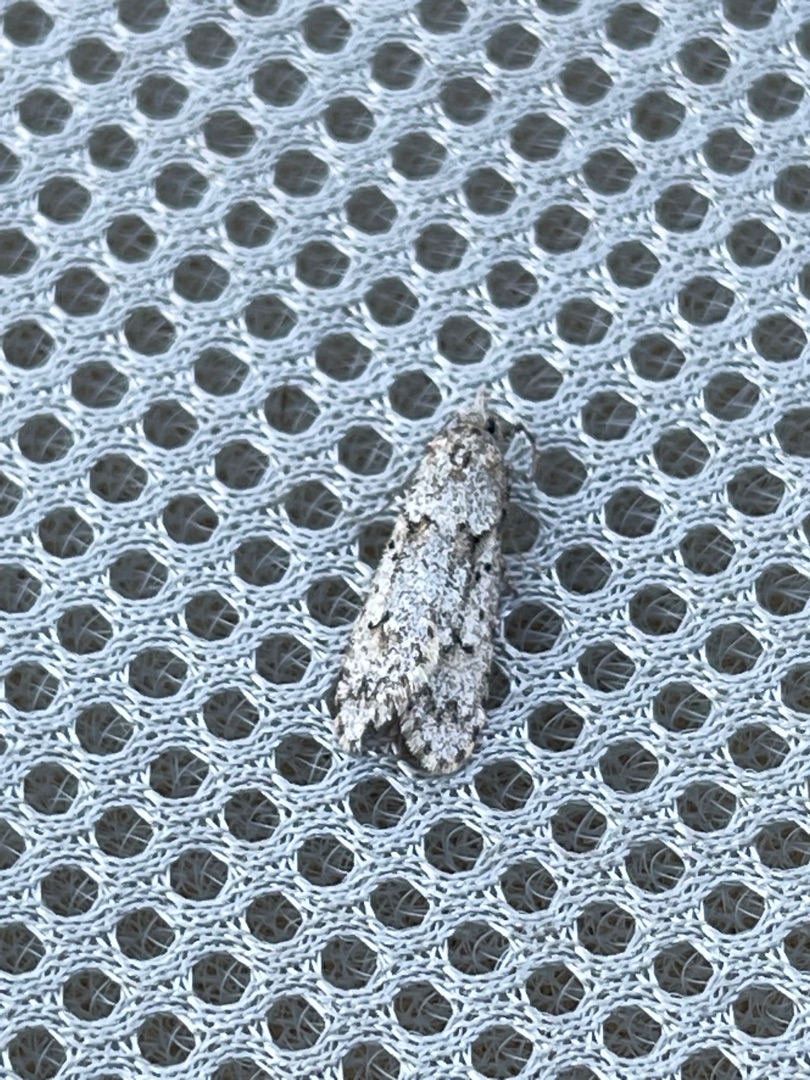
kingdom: Animalia
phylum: Arthropoda
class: Insecta
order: Lepidoptera
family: Lypusidae
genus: Diurnea
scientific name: Diurnea fagella
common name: Bøgeprydvinge
